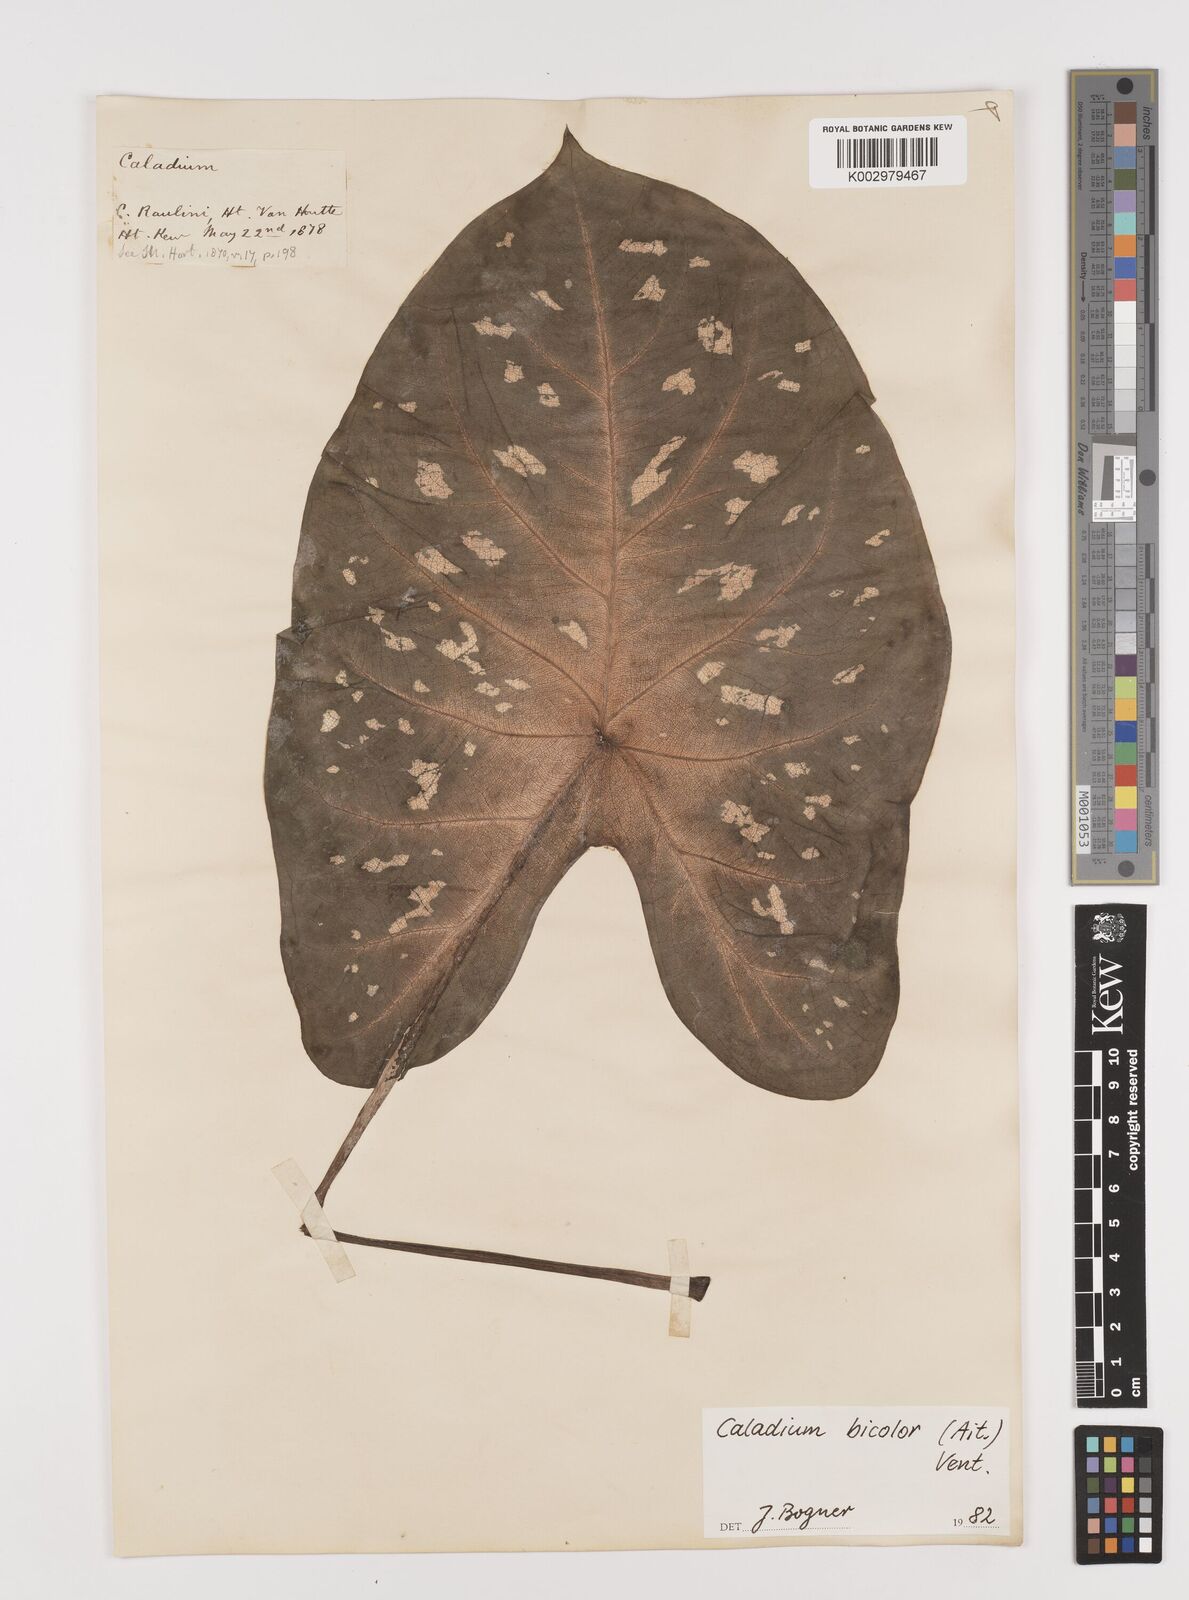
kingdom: Plantae
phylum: Tracheophyta
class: Liliopsida
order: Alismatales
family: Araceae
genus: Caladium
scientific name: Caladium bicolor
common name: Artist's pallet
